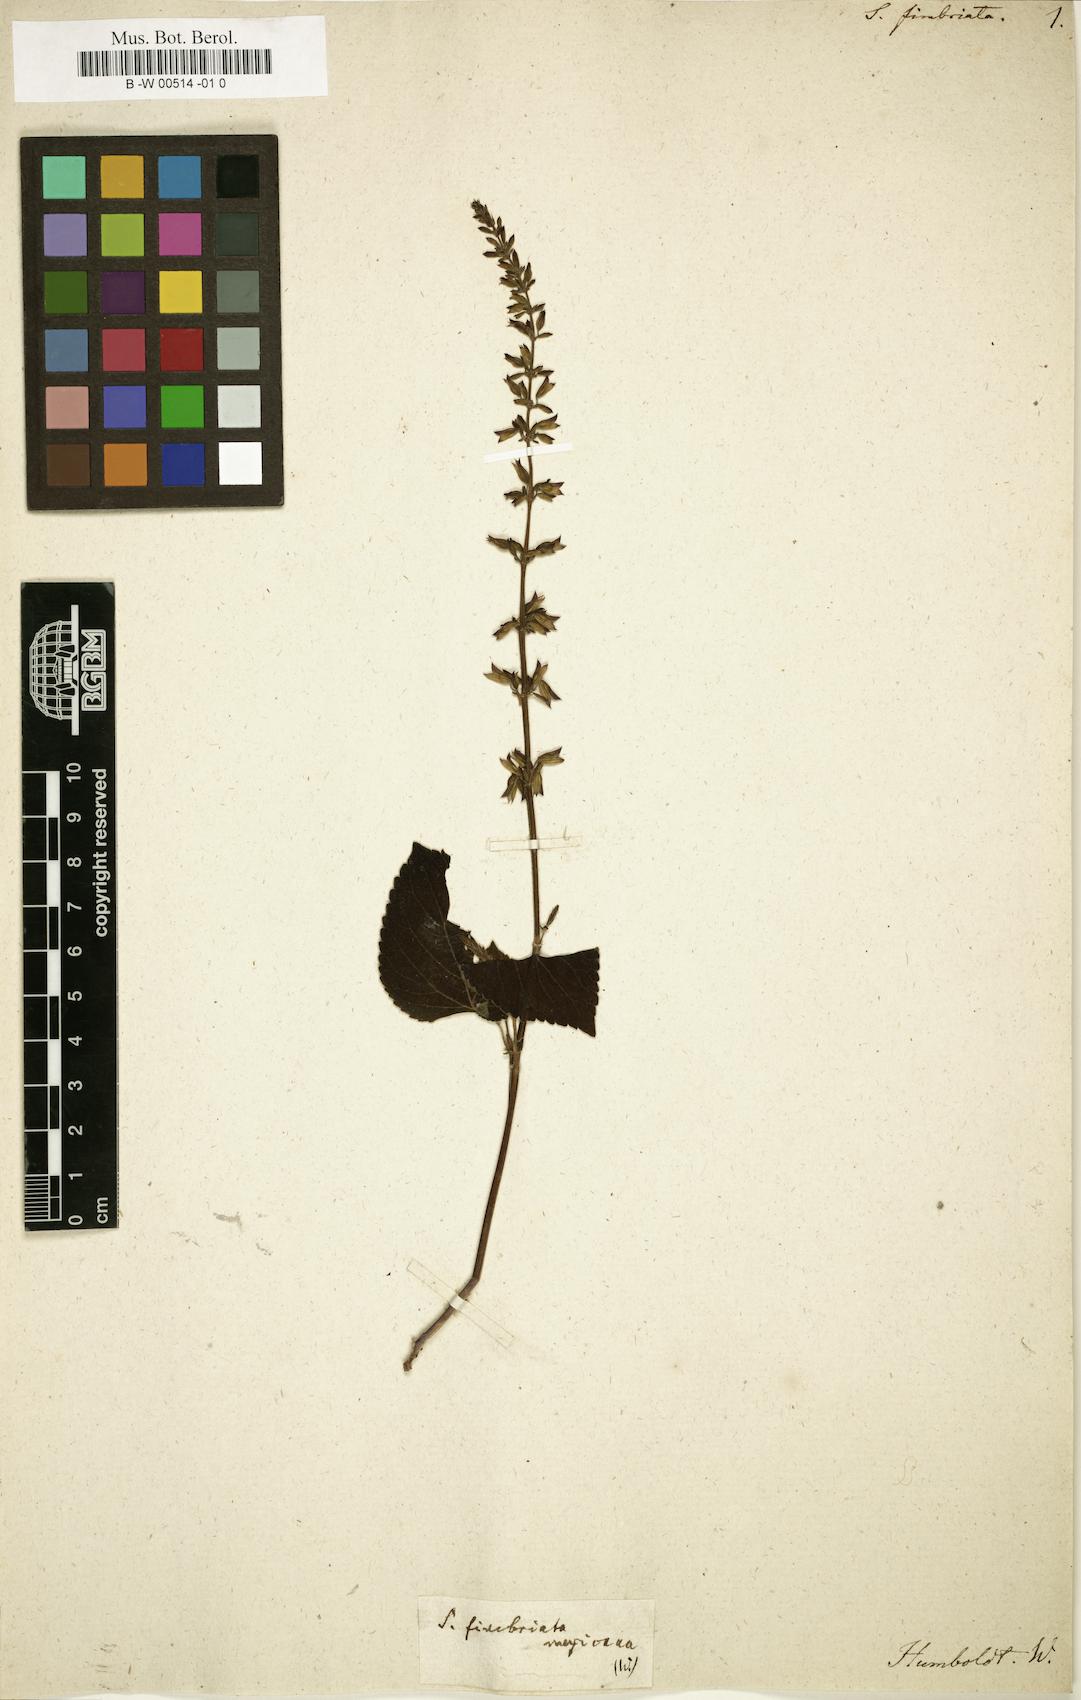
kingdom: Plantae
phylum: Tracheophyta
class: Magnoliopsida
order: Lamiales
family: Lamiaceae
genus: Salvia
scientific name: Salvia tiliifolia
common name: Lindenleaf sage
